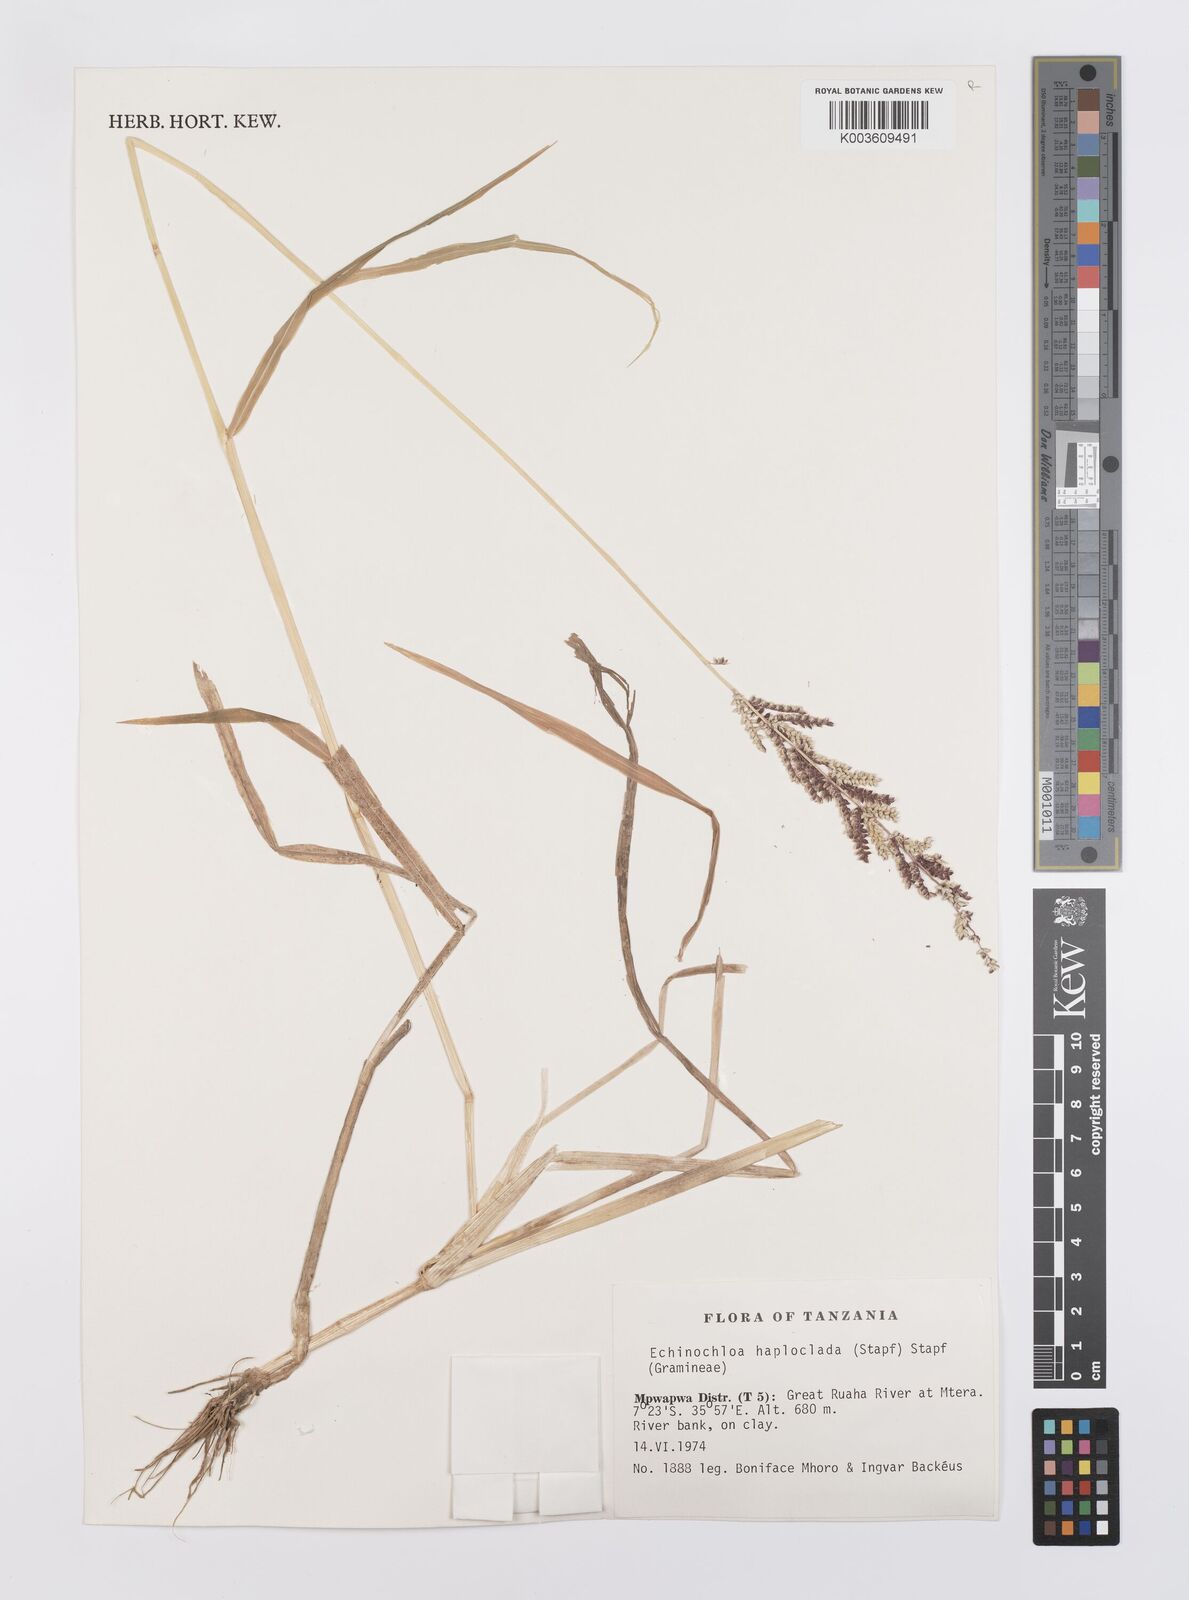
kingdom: Plantae
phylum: Tracheophyta
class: Liliopsida
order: Poales
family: Poaceae
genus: Echinochloa
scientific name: Echinochloa haploclada
